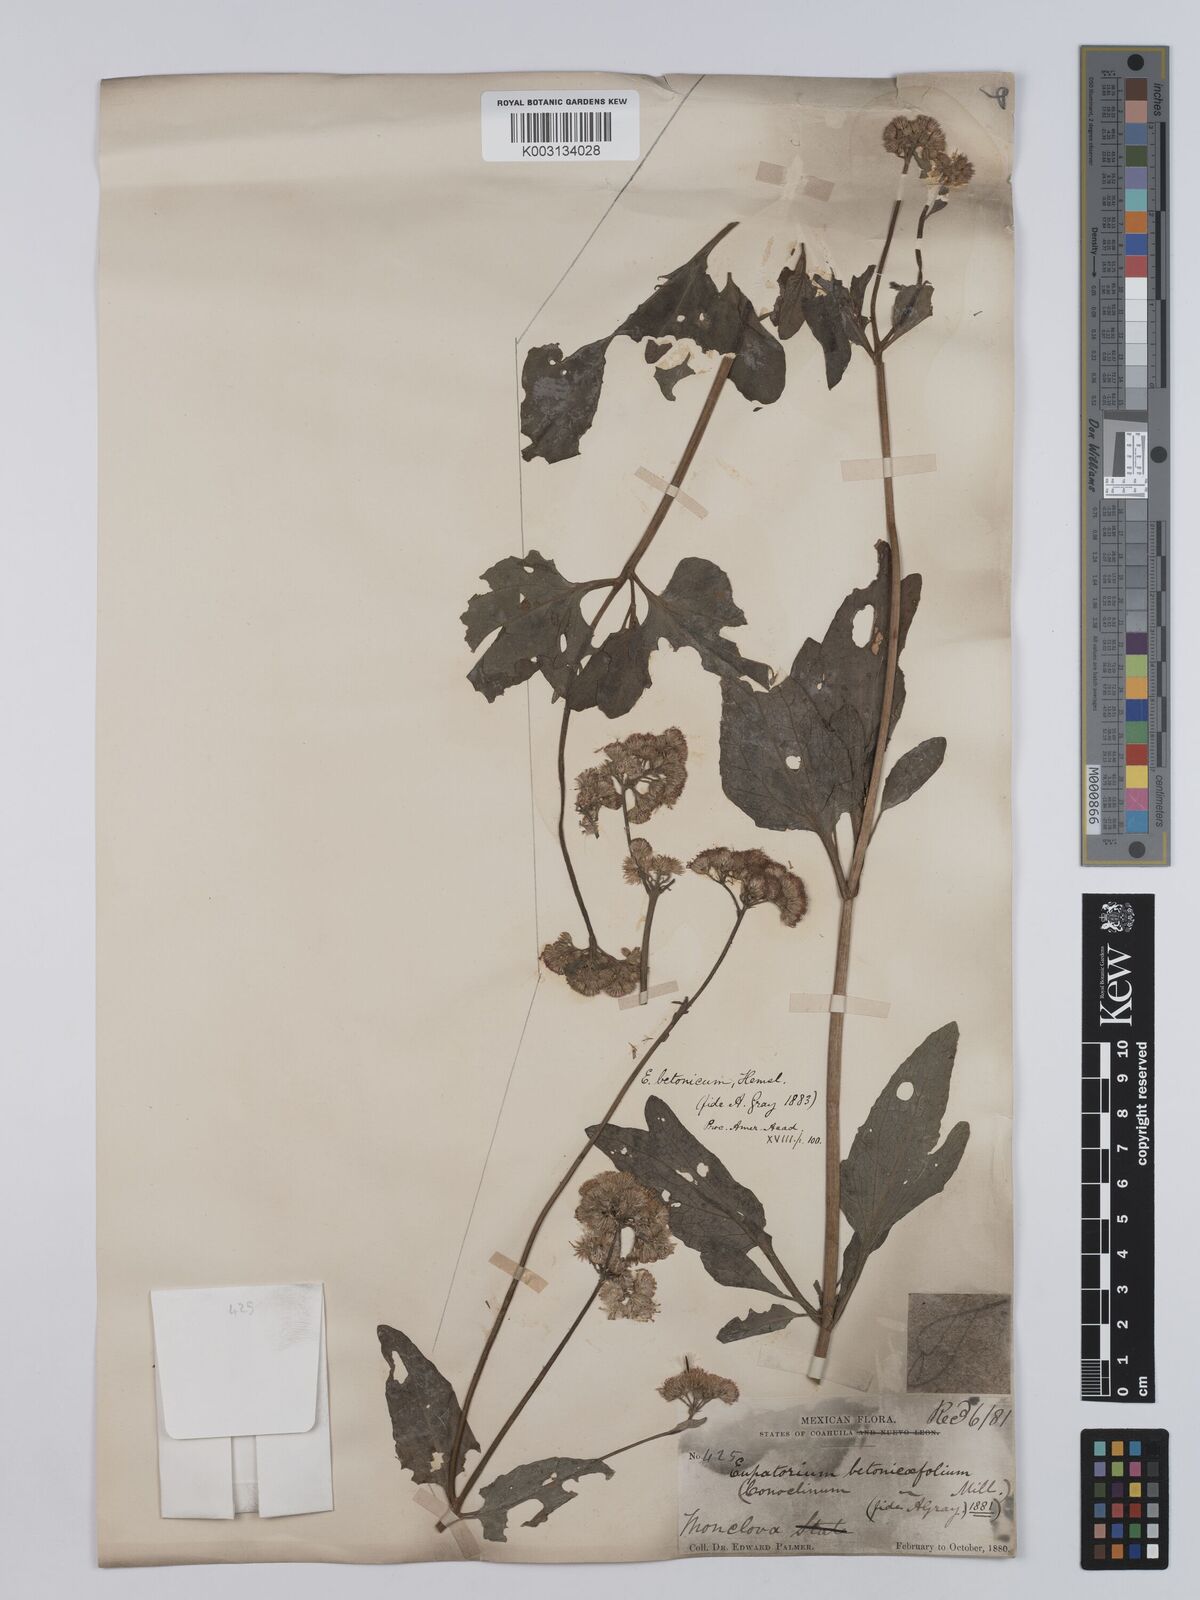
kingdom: Plantae
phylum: Tracheophyta
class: Magnoliopsida
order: Asterales
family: Asteraceae
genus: Conoclinium
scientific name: Conoclinium betonicifolium
